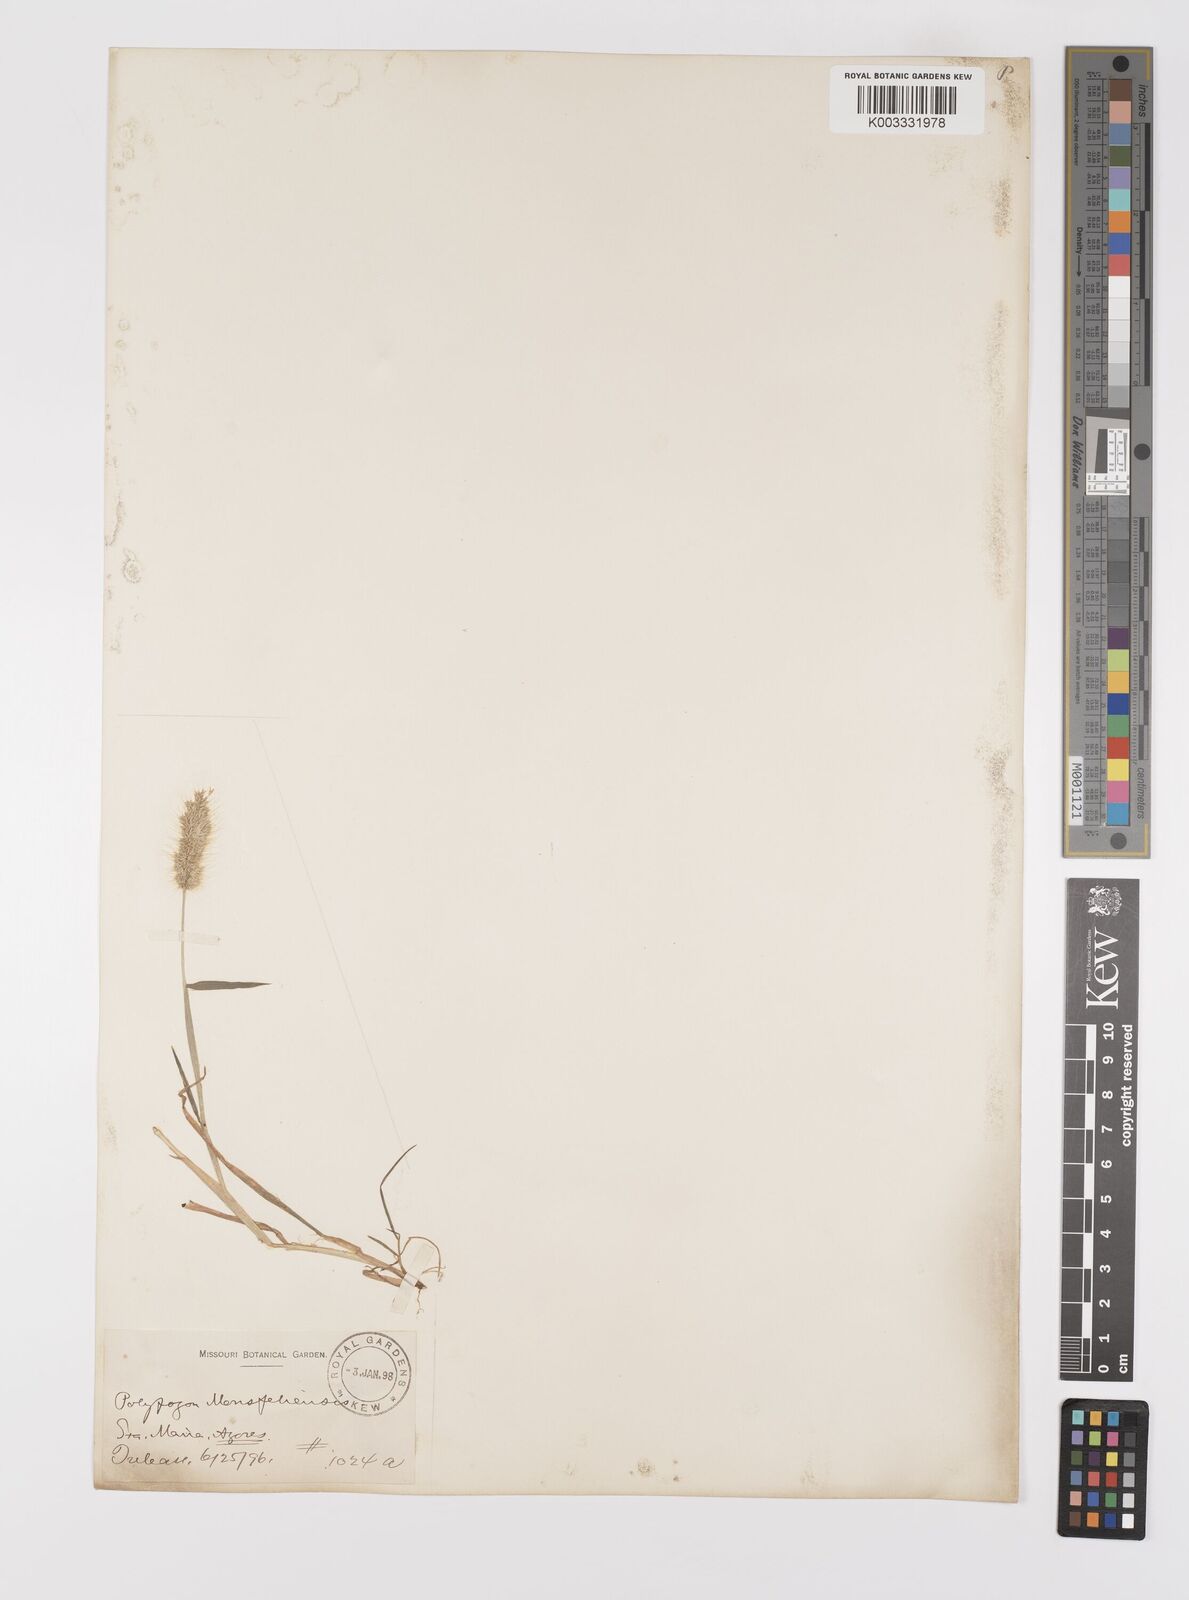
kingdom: Plantae
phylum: Tracheophyta
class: Liliopsida
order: Poales
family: Poaceae
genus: Polypogon
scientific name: Polypogon monspeliensis
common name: Annual rabbitsfoot grass
